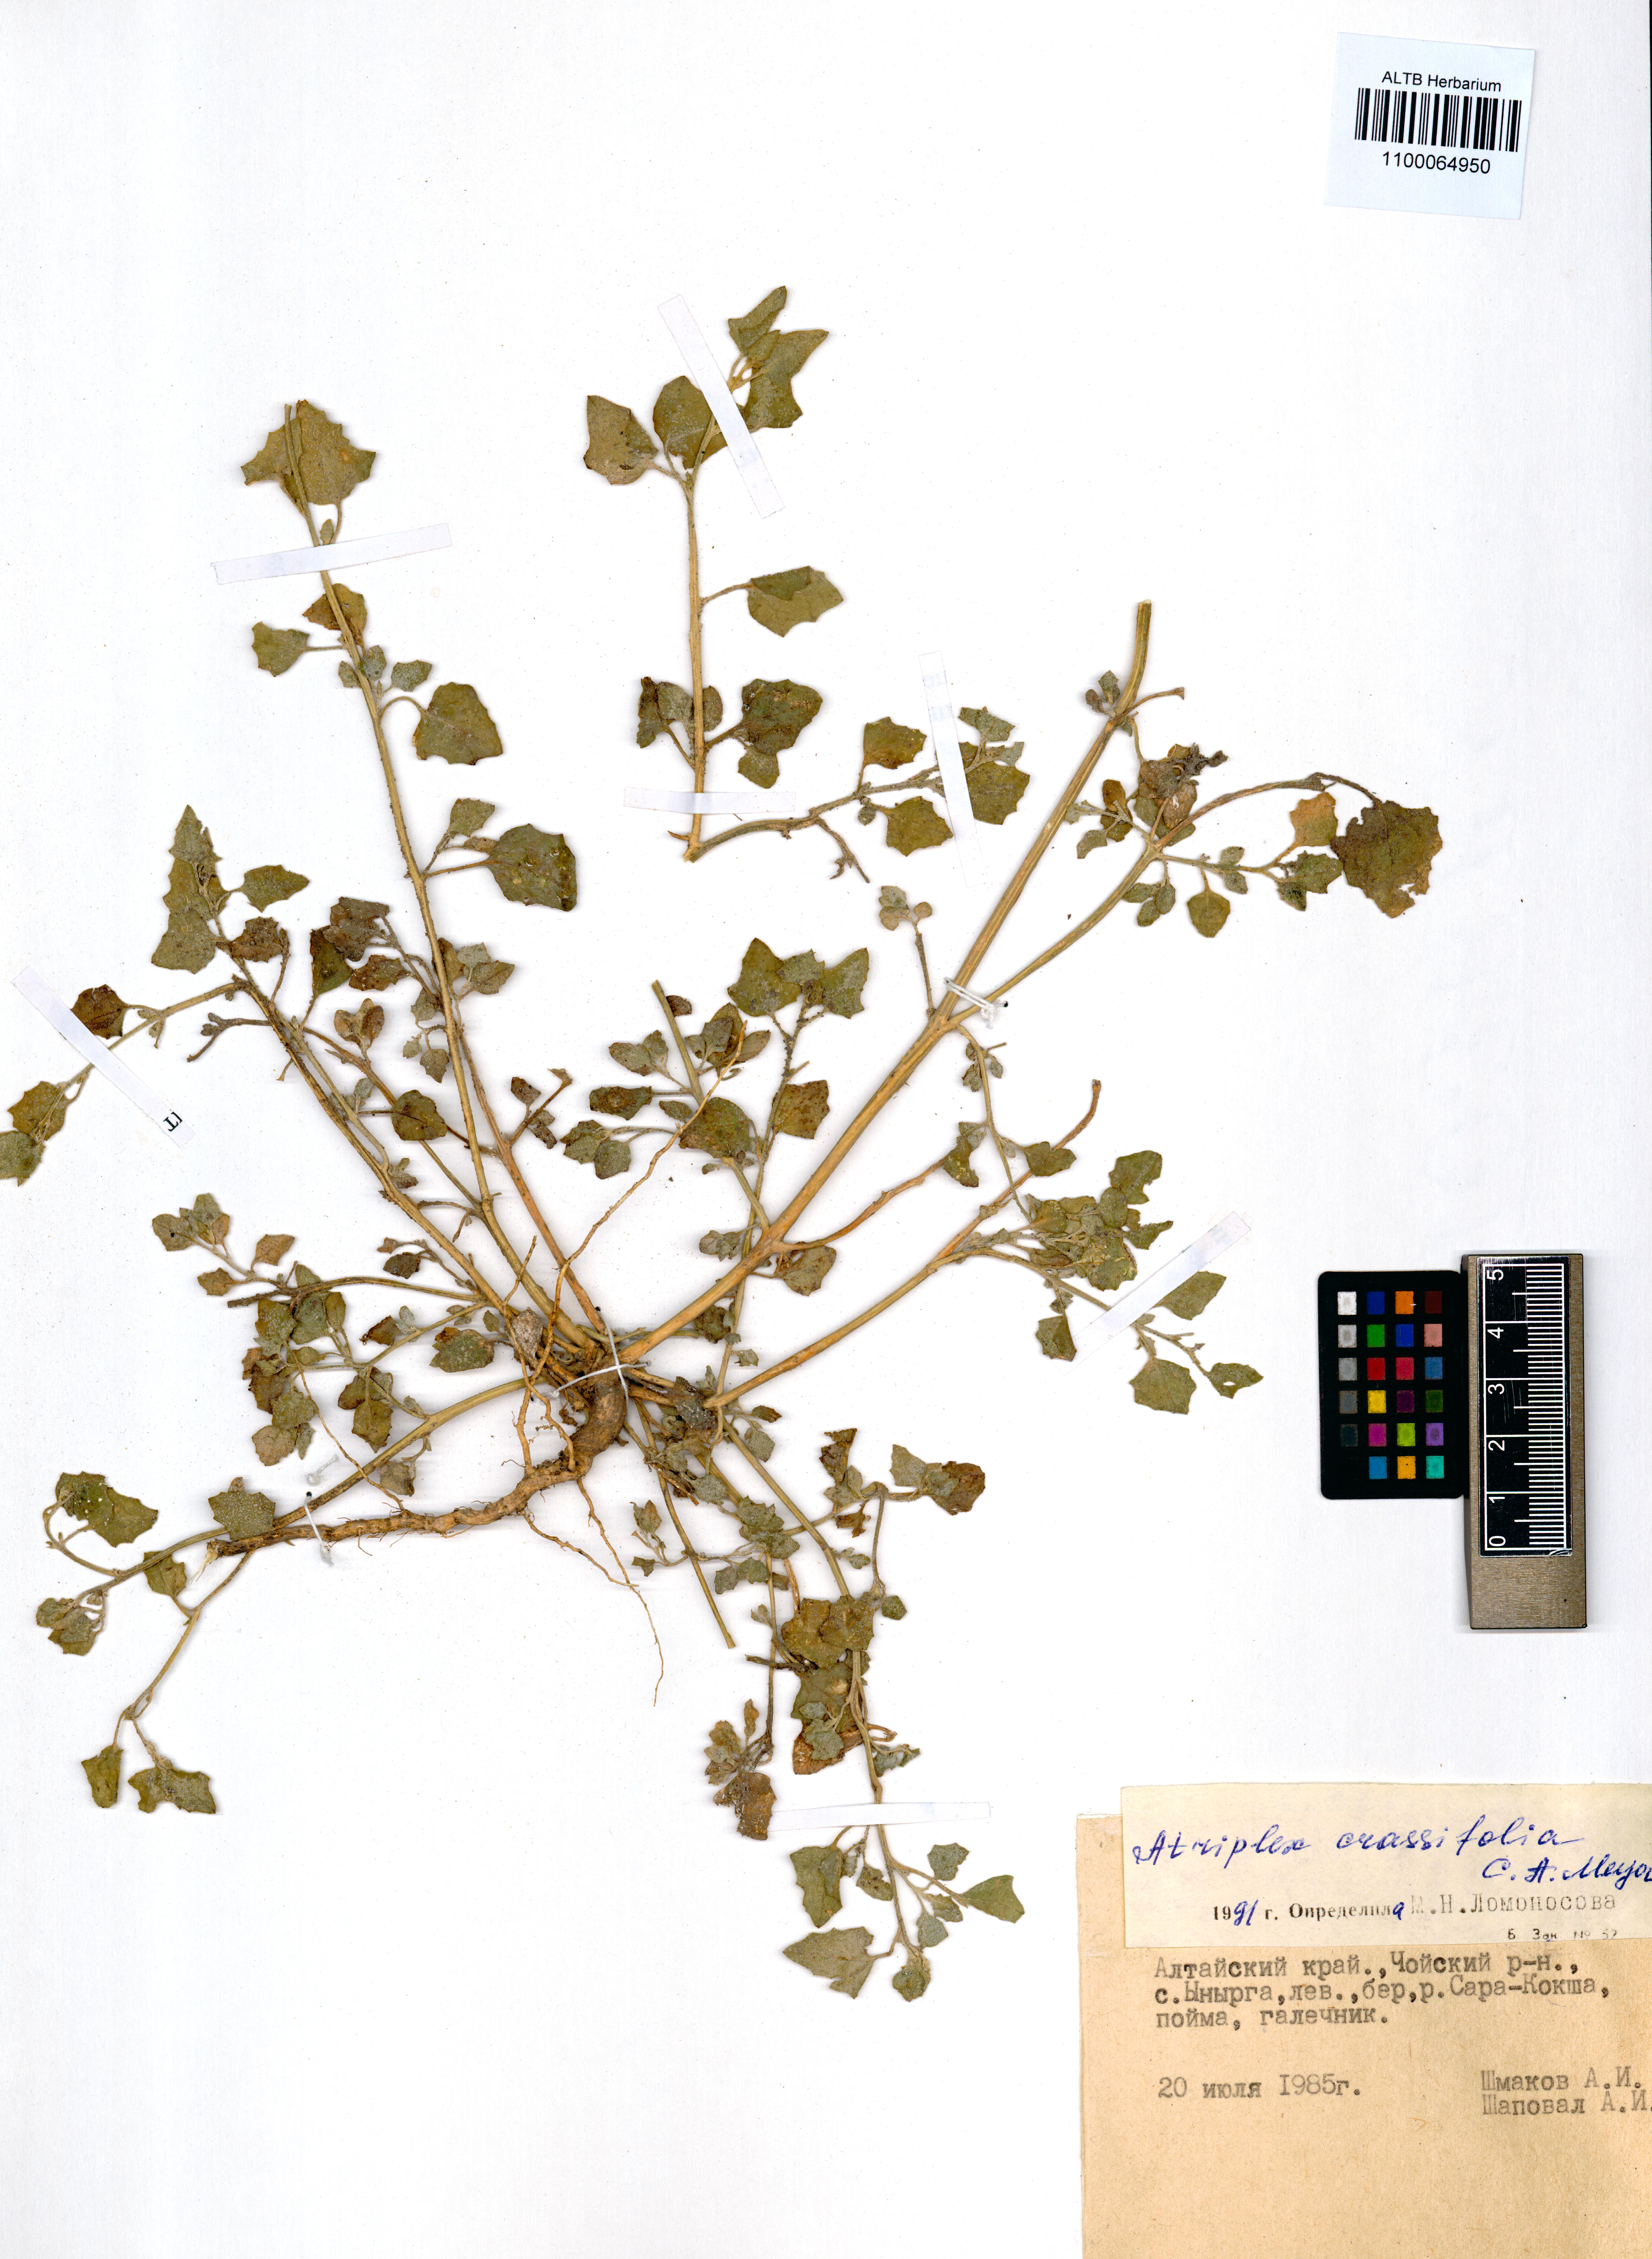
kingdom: Plantae
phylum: Tracheophyta
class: Magnoliopsida
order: Caryophyllales
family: Amaranthaceae
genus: Atriplex
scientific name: Atriplex crassifolia
